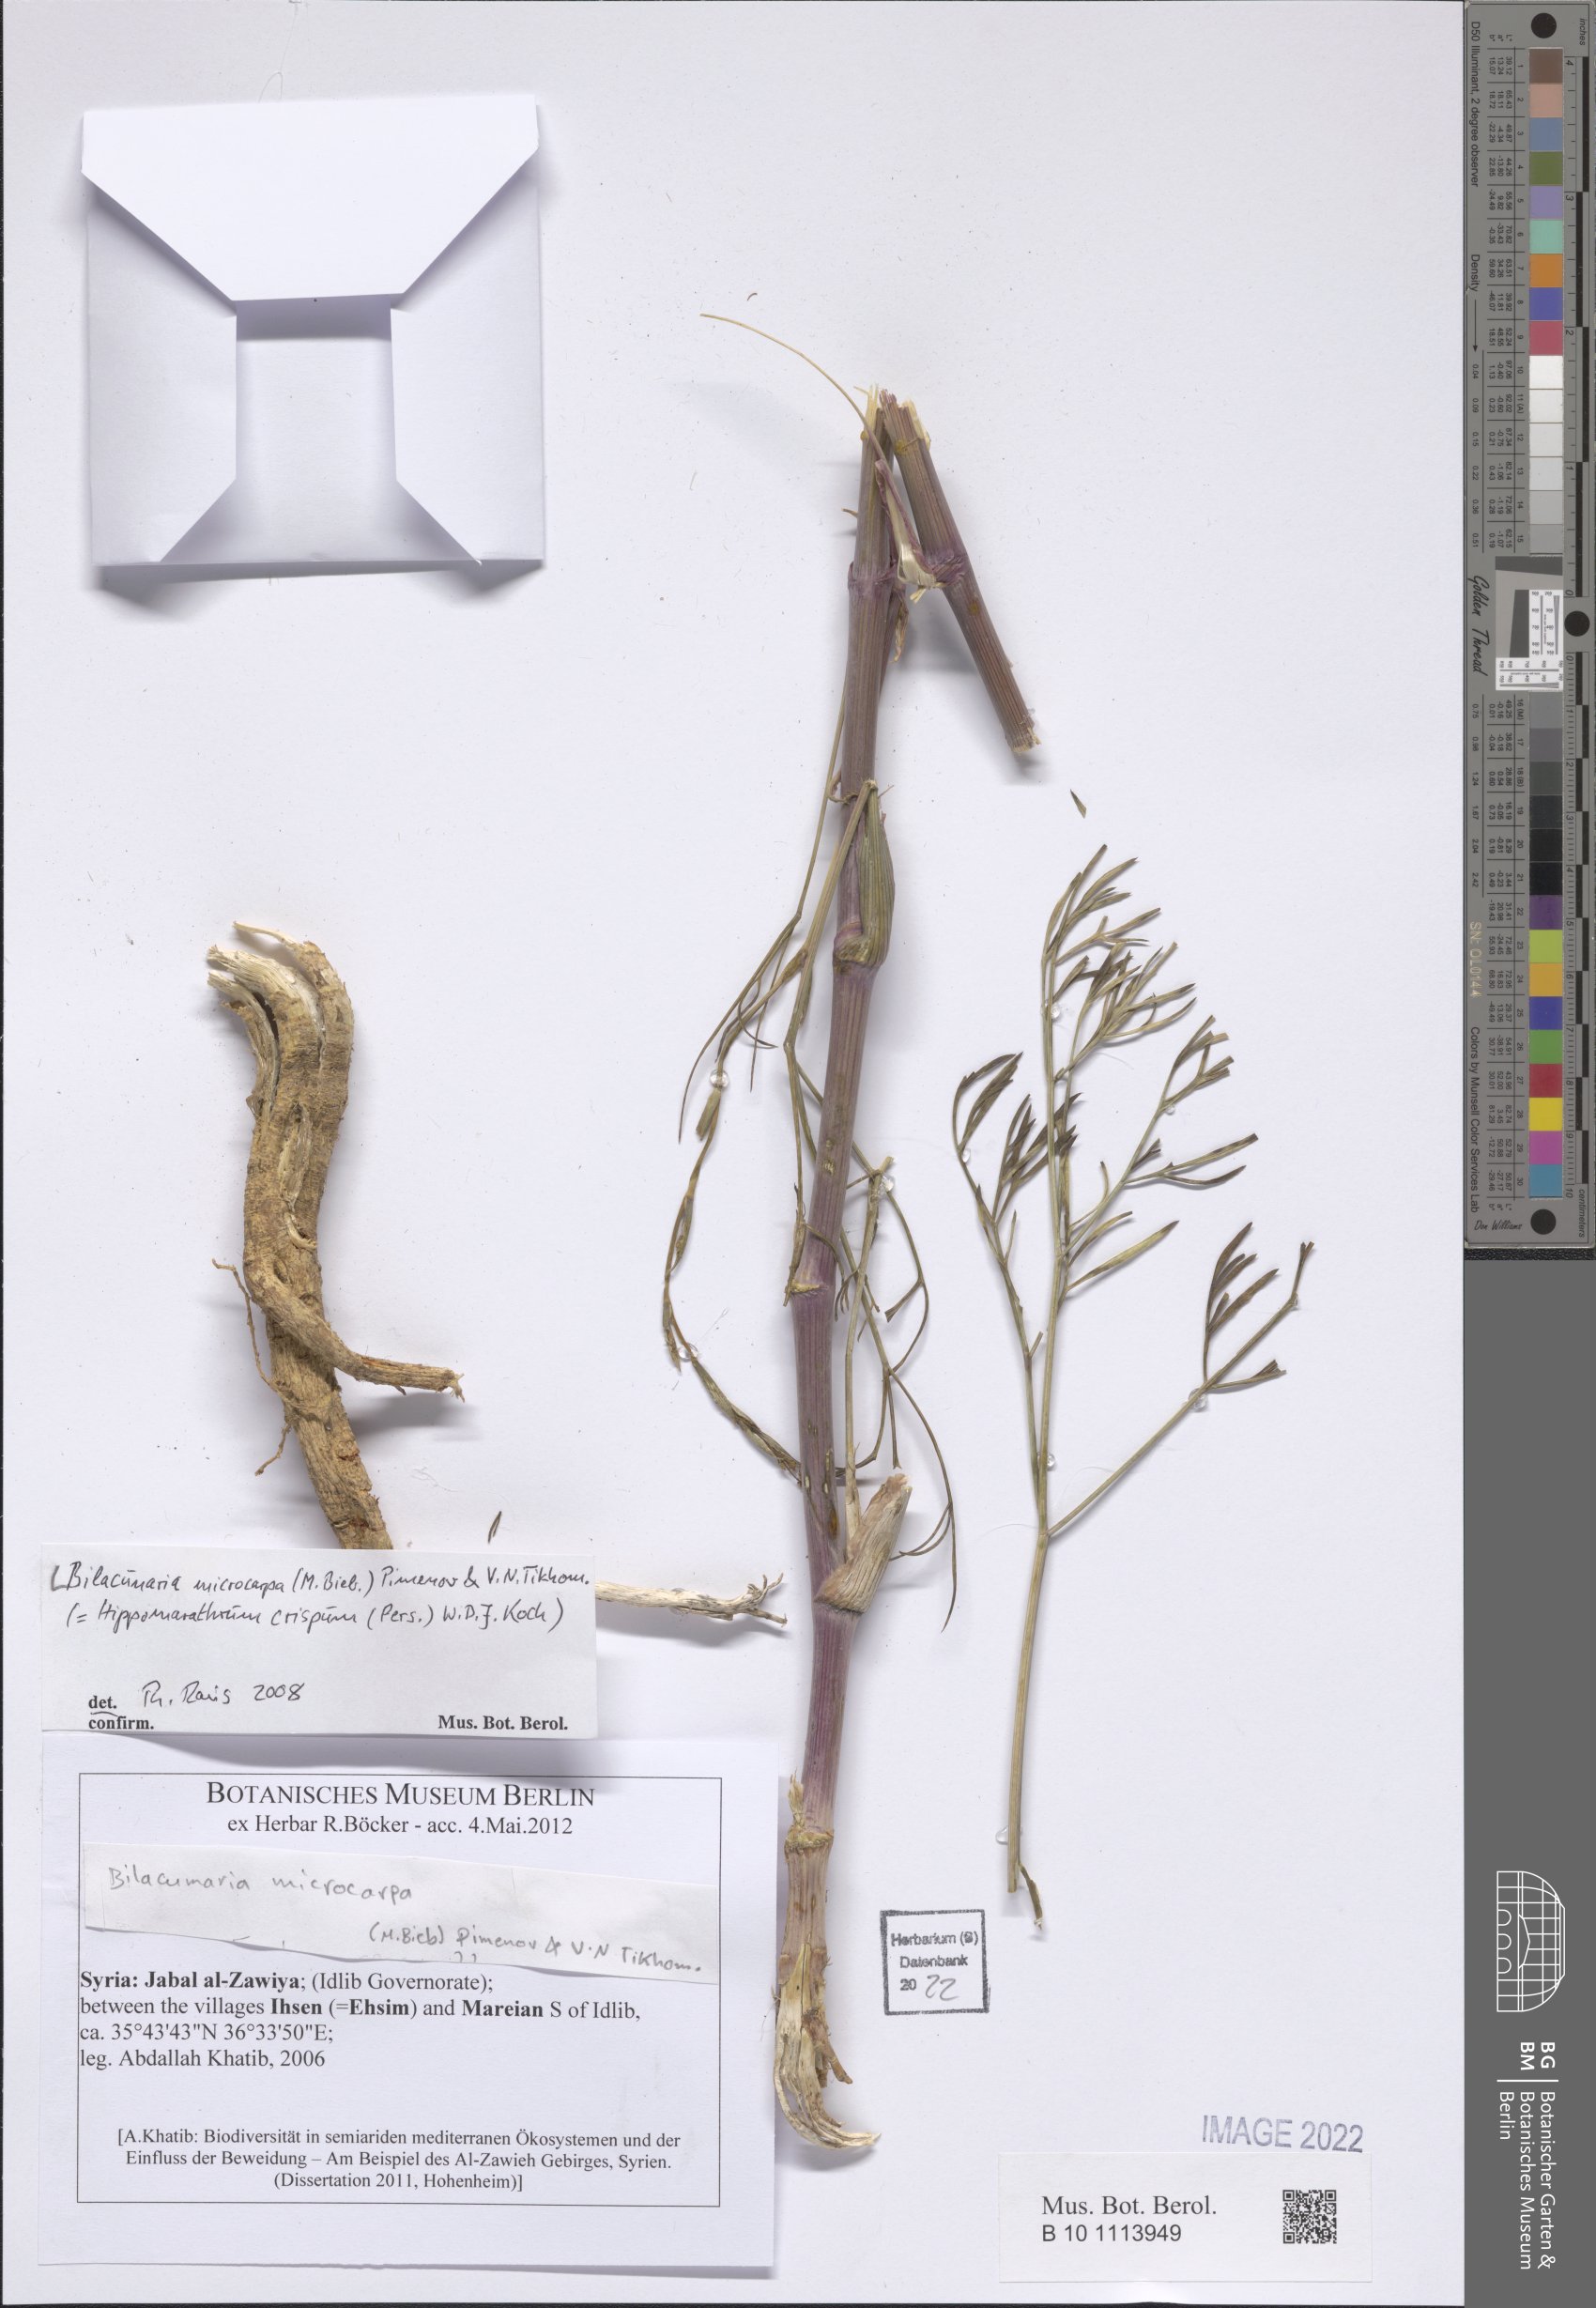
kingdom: Plantae
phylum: Tracheophyta
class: Magnoliopsida
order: Apiales
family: Apiaceae
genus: Bilacunaria
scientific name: Bilacunaria microcarpa
